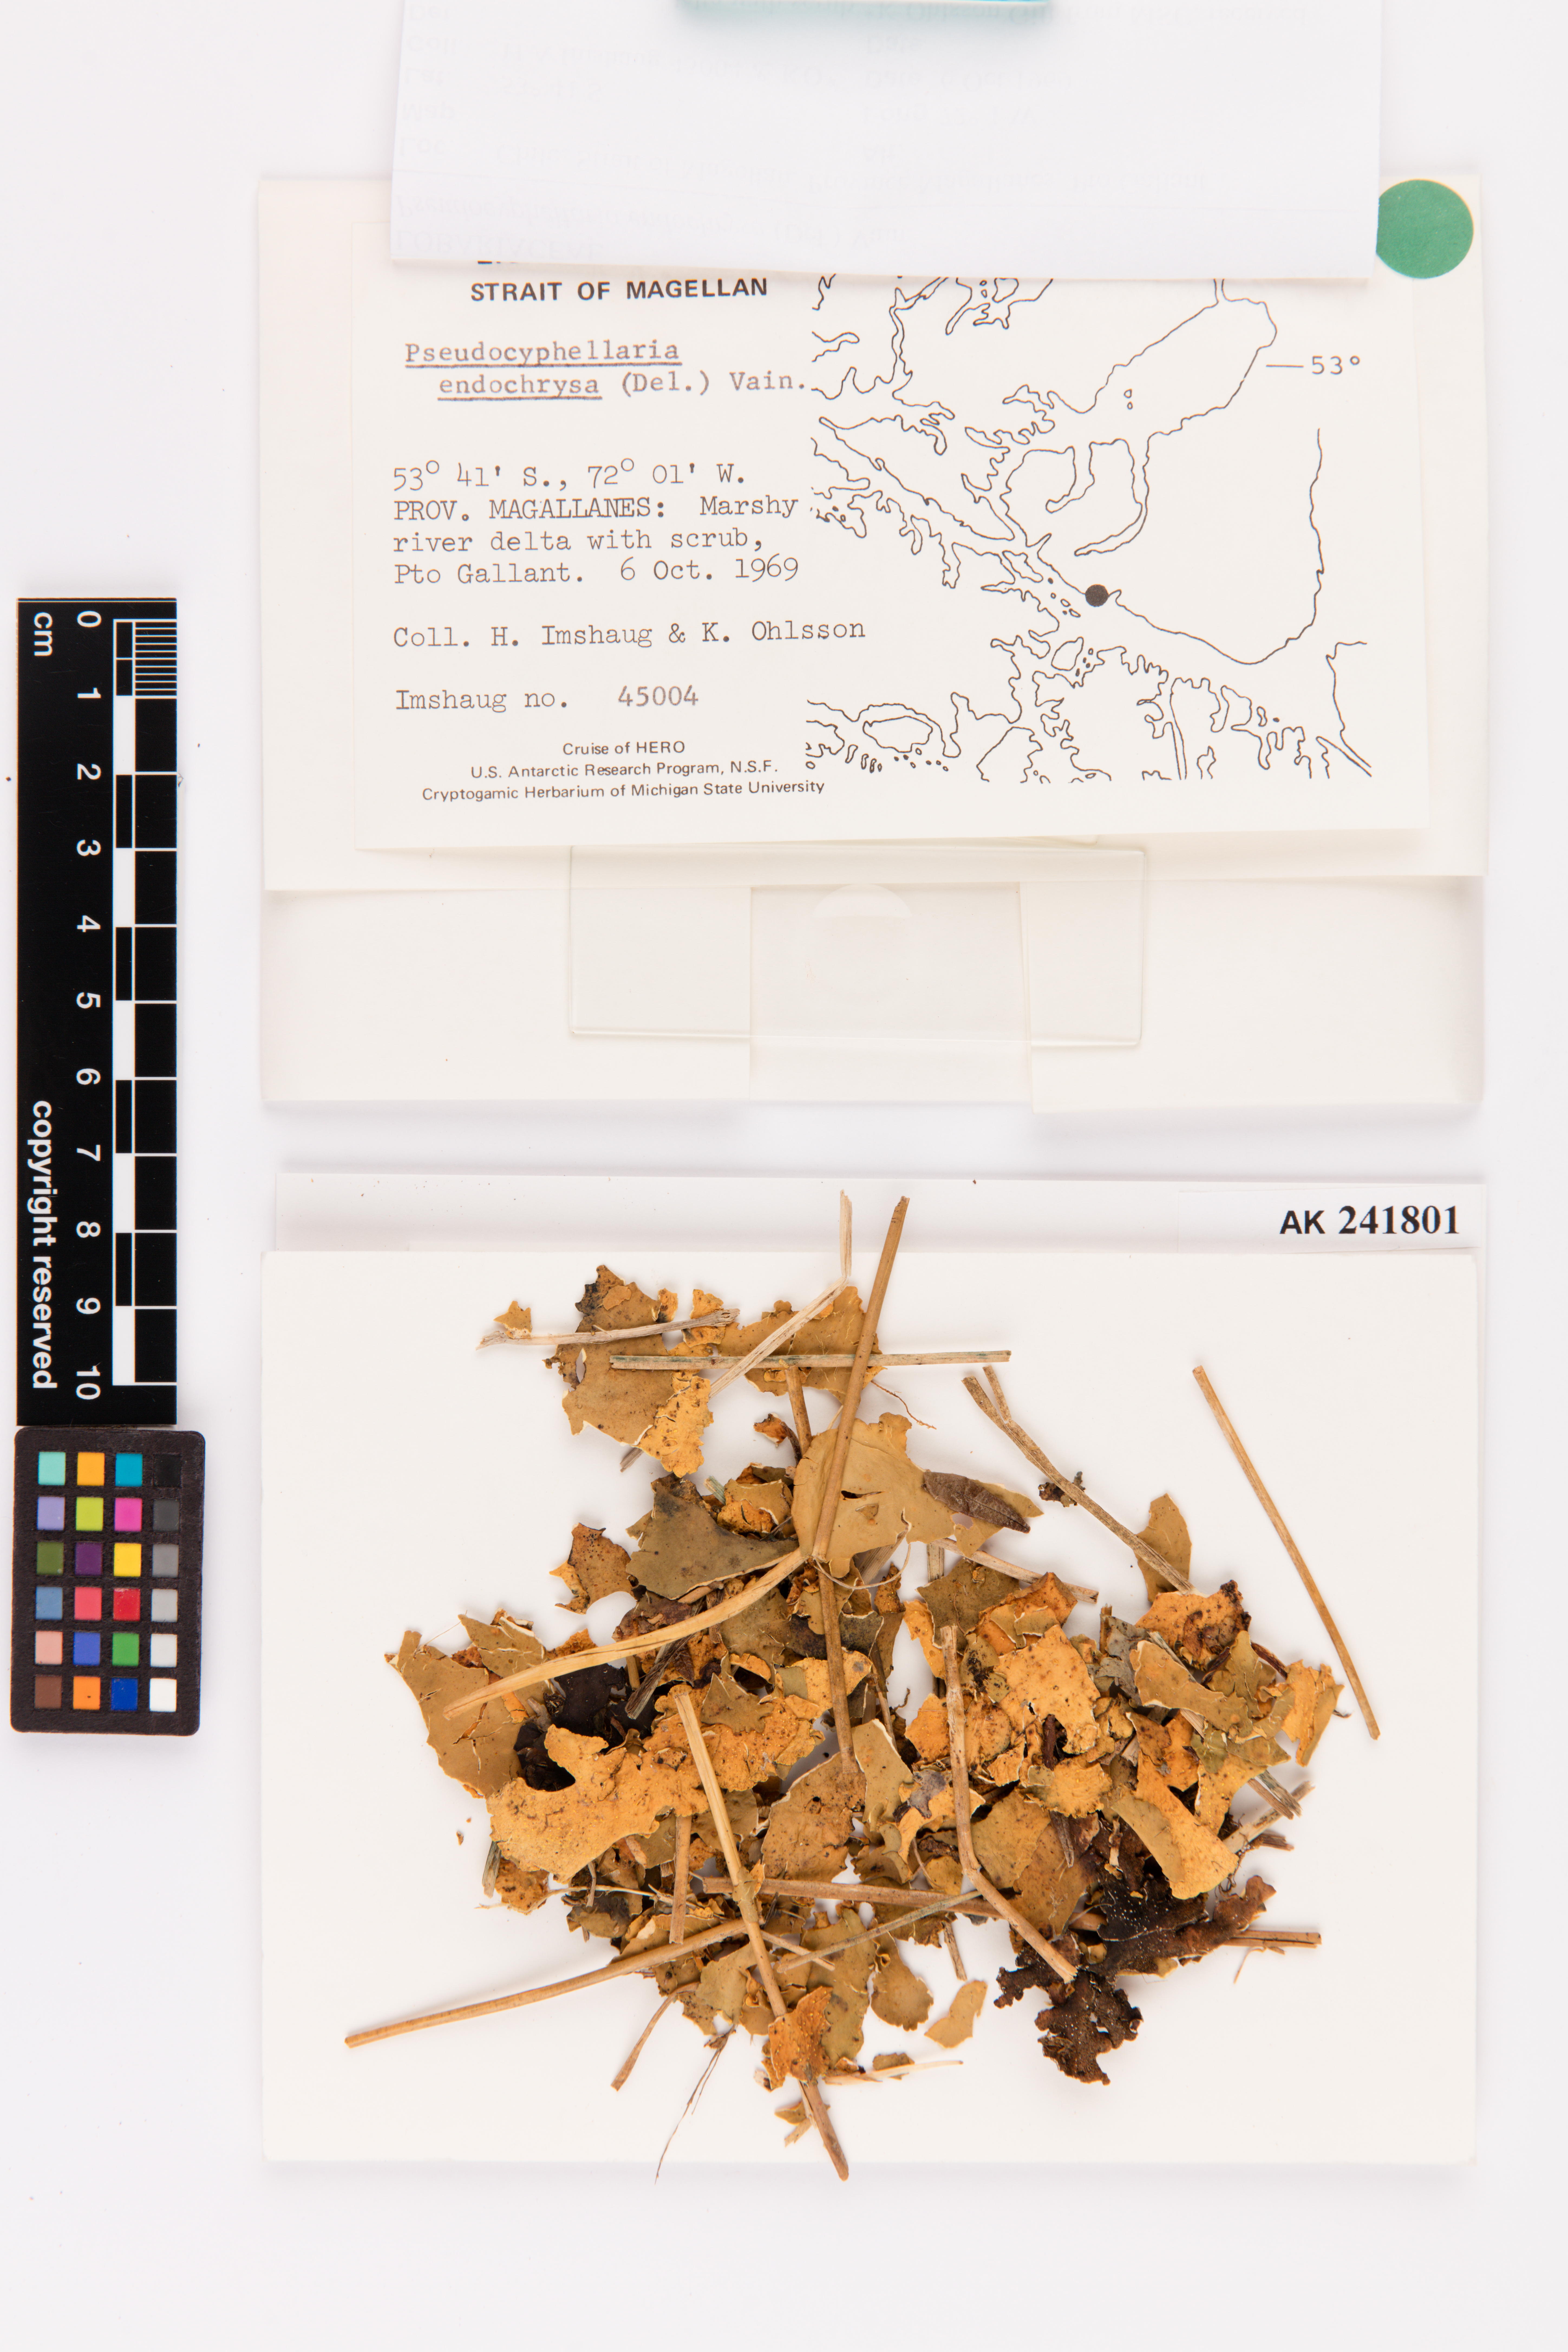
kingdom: Fungi
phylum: Ascomycota
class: Lecanoromycetes
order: Peltigerales
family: Lobariaceae
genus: Podostictina
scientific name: Podostictina endochrysa
